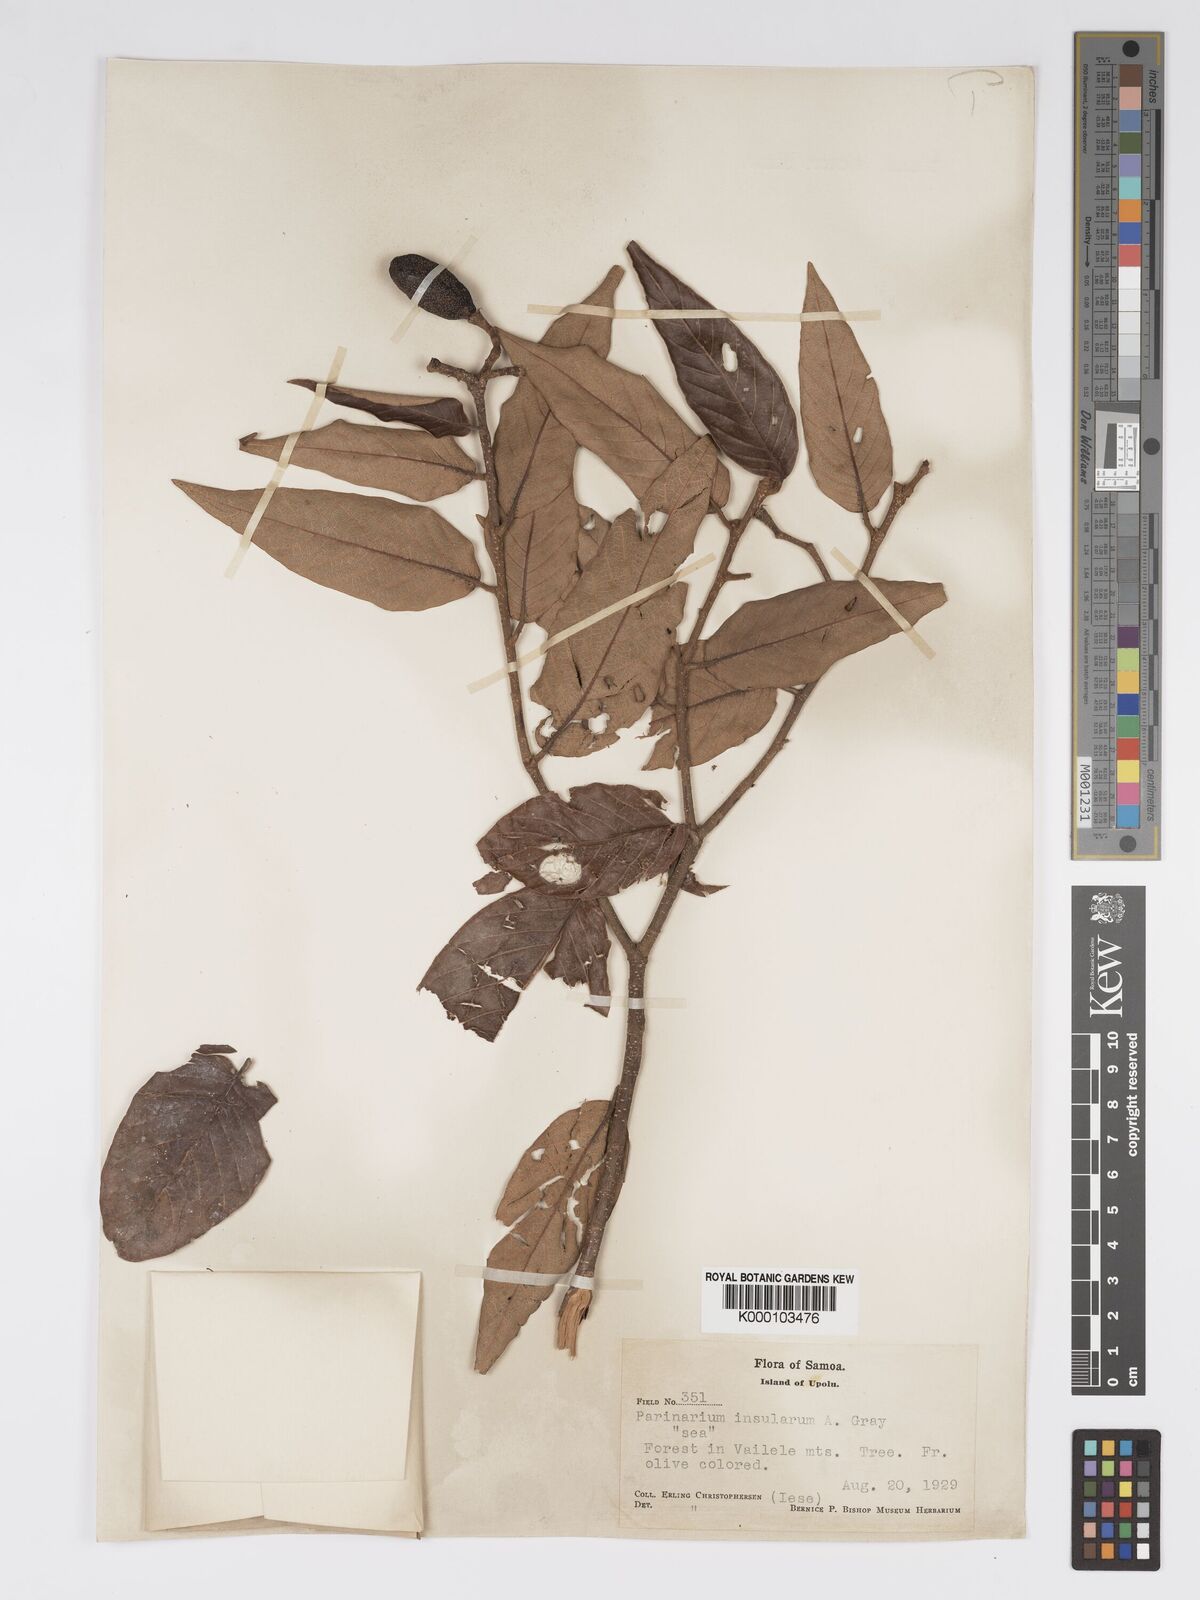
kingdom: Plantae
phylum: Tracheophyta
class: Magnoliopsida
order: Malpighiales
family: Chrysobalanaceae
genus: Parinari
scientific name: Parinari insularum
